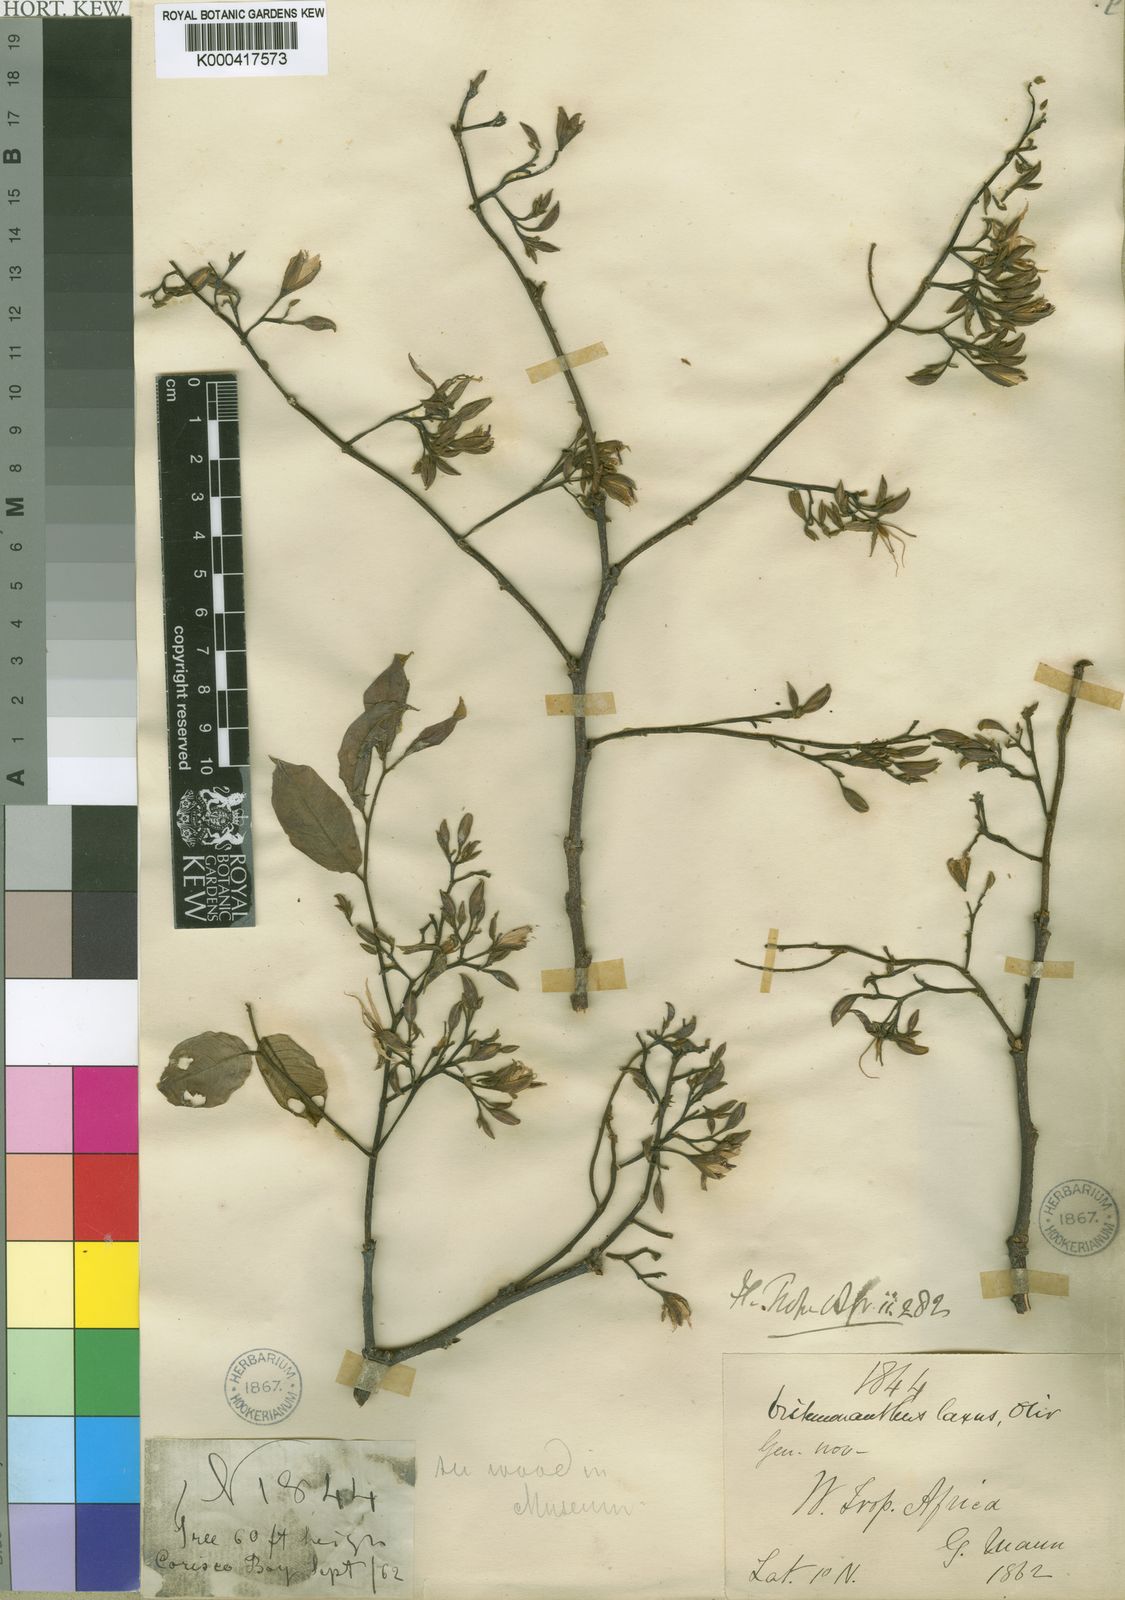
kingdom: Plantae
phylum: Tracheophyta
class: Magnoliopsida
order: Fabales
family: Fabaceae
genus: Distemonanthus
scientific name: Distemonanthus benthamianus
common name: Yellow satinwood
